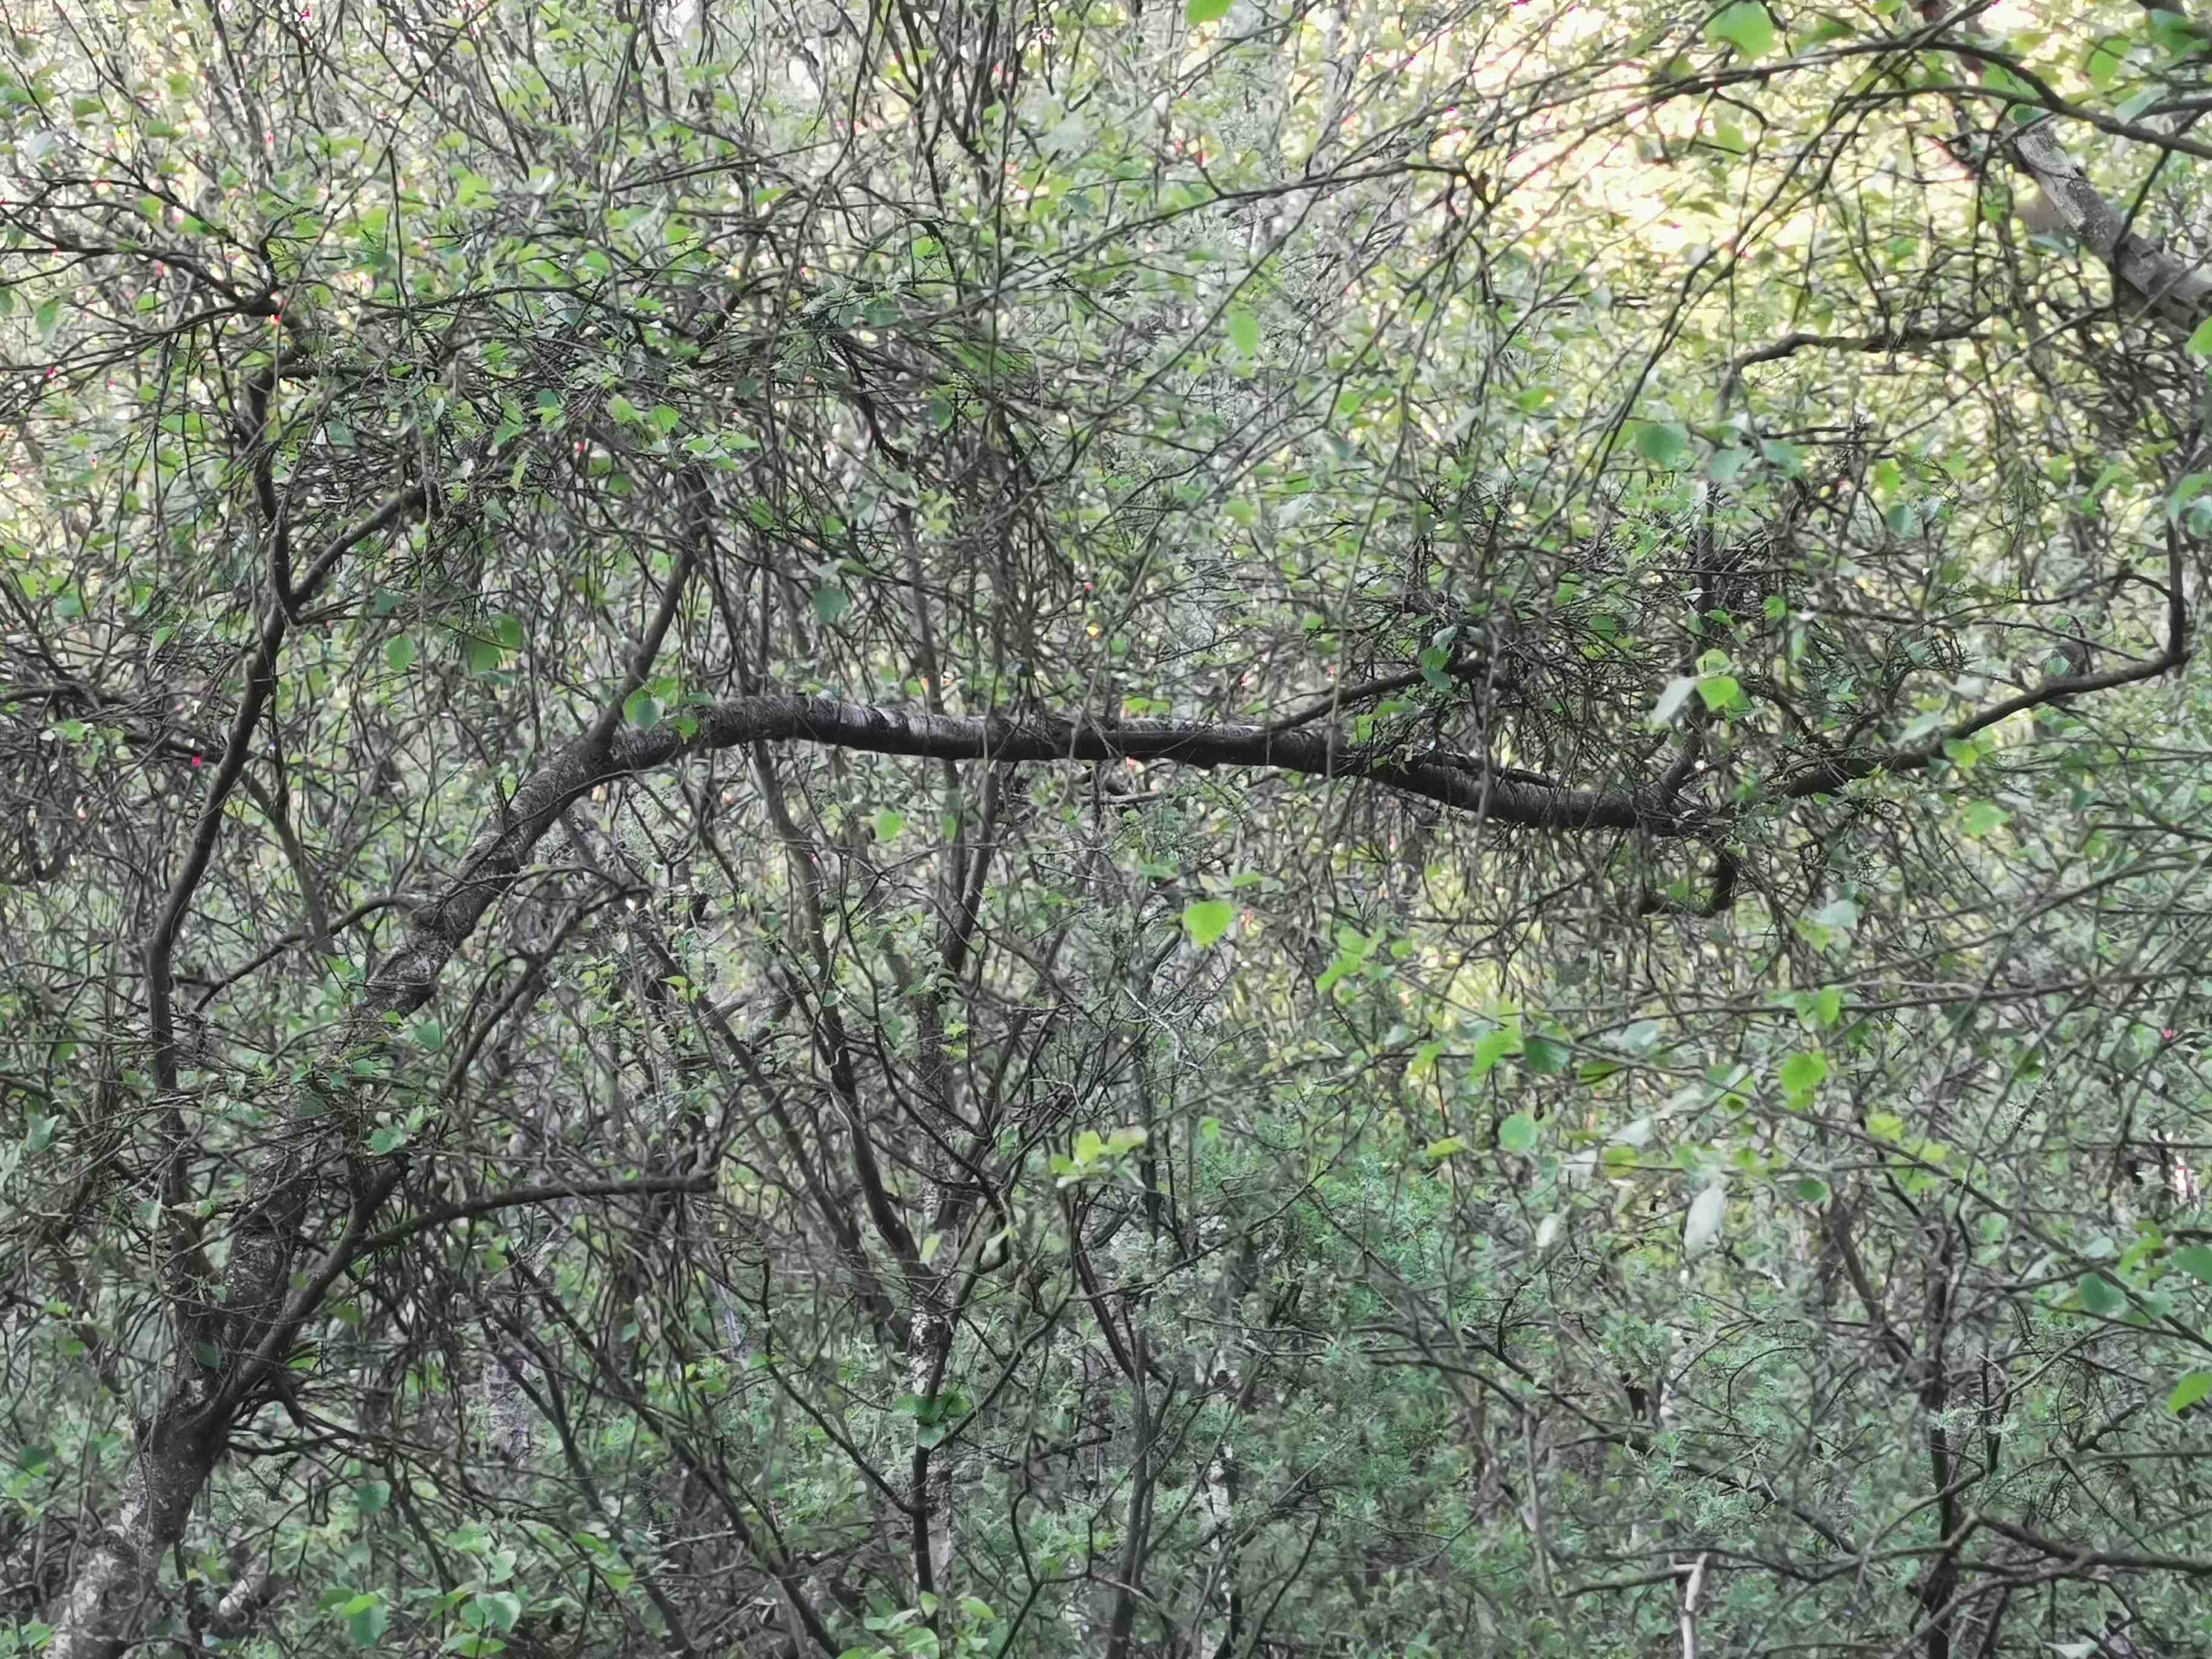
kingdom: Fungi
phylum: Ascomycota
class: Taphrinomycetes
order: Taphrinales
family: Taphrinaceae
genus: Taphrina
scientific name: Taphrina betulina
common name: hekse-sækdug
